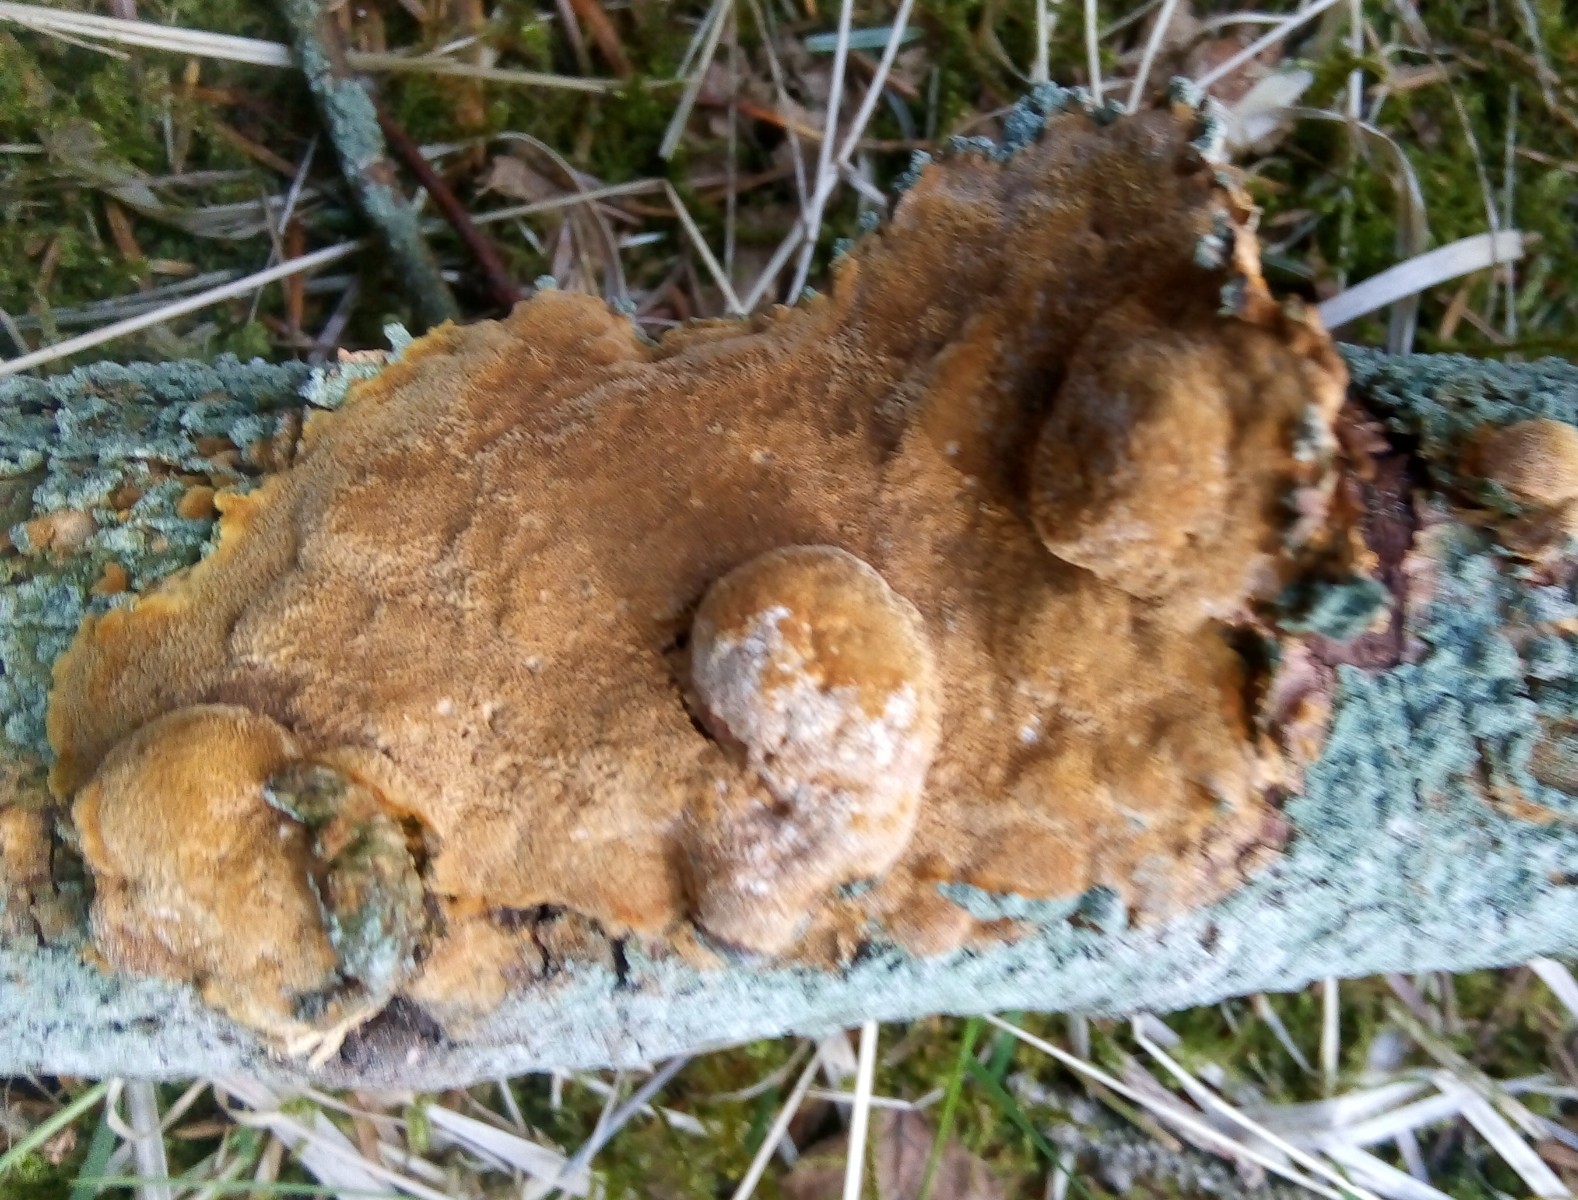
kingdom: Fungi
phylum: Basidiomycota
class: Agaricomycetes
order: Hymenochaetales
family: Hymenochaetaceae
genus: Fuscoporia
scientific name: Fuscoporia ferrea
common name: skorpe-ildporesvamp
